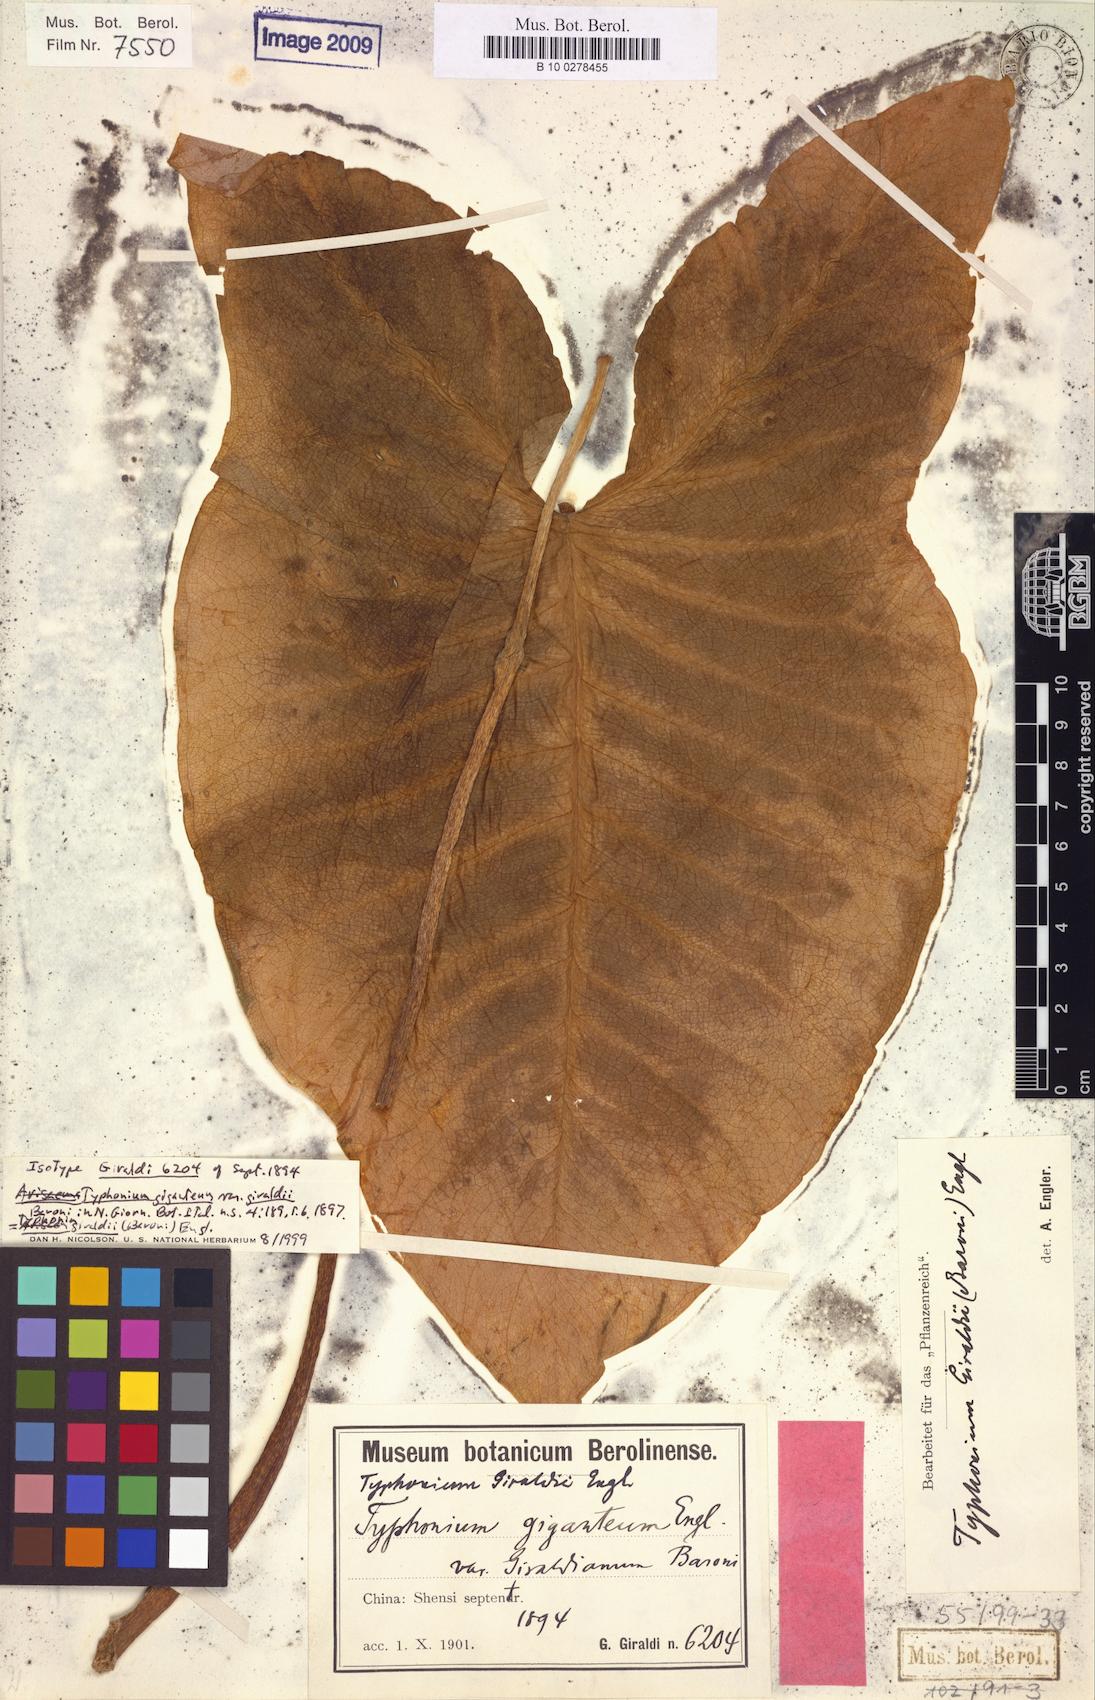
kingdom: Plantae
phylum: Tracheophyta
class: Liliopsida
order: Alismatales
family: Araceae
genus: Sauromatum
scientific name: Sauromatum giganteum
